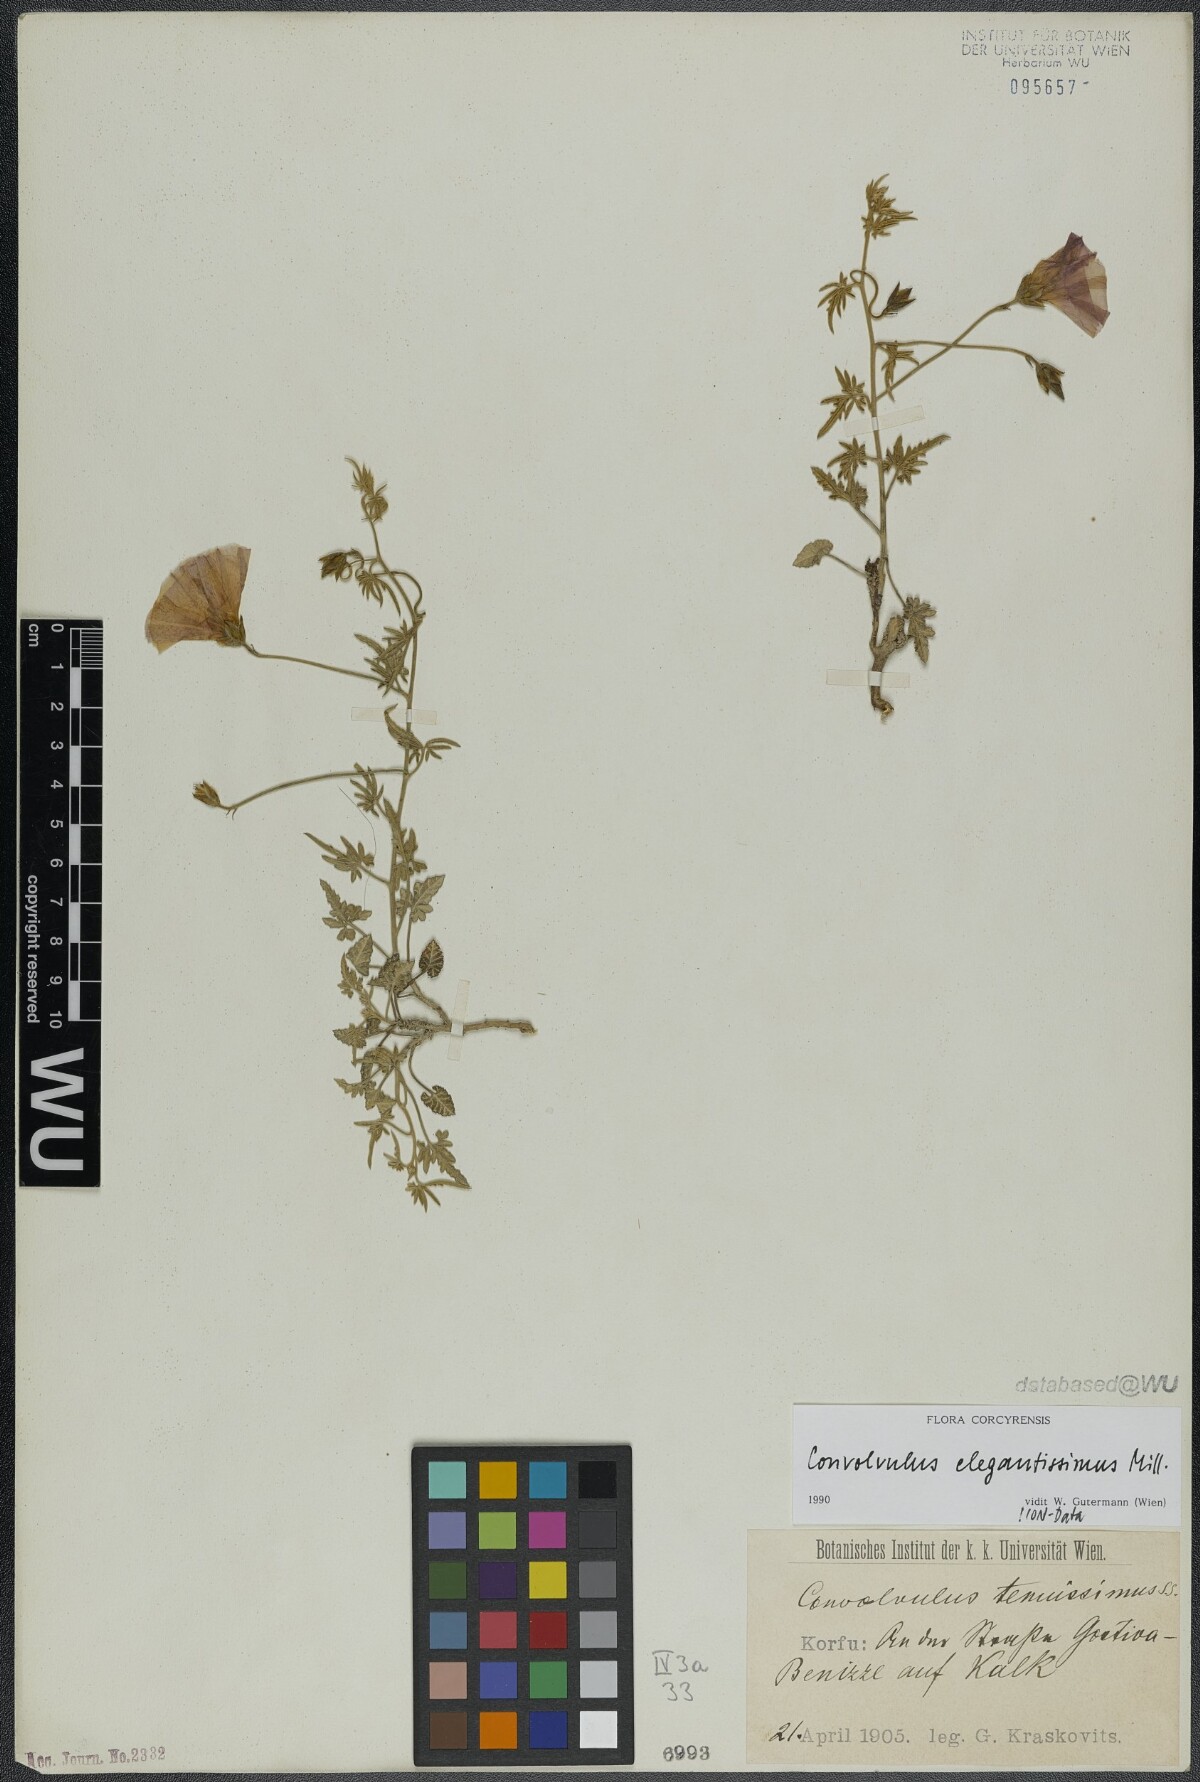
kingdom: Plantae
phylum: Tracheophyta
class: Magnoliopsida
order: Solanales
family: Convolvulaceae
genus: Convolvulus
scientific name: Convolvulus elegantissimus
